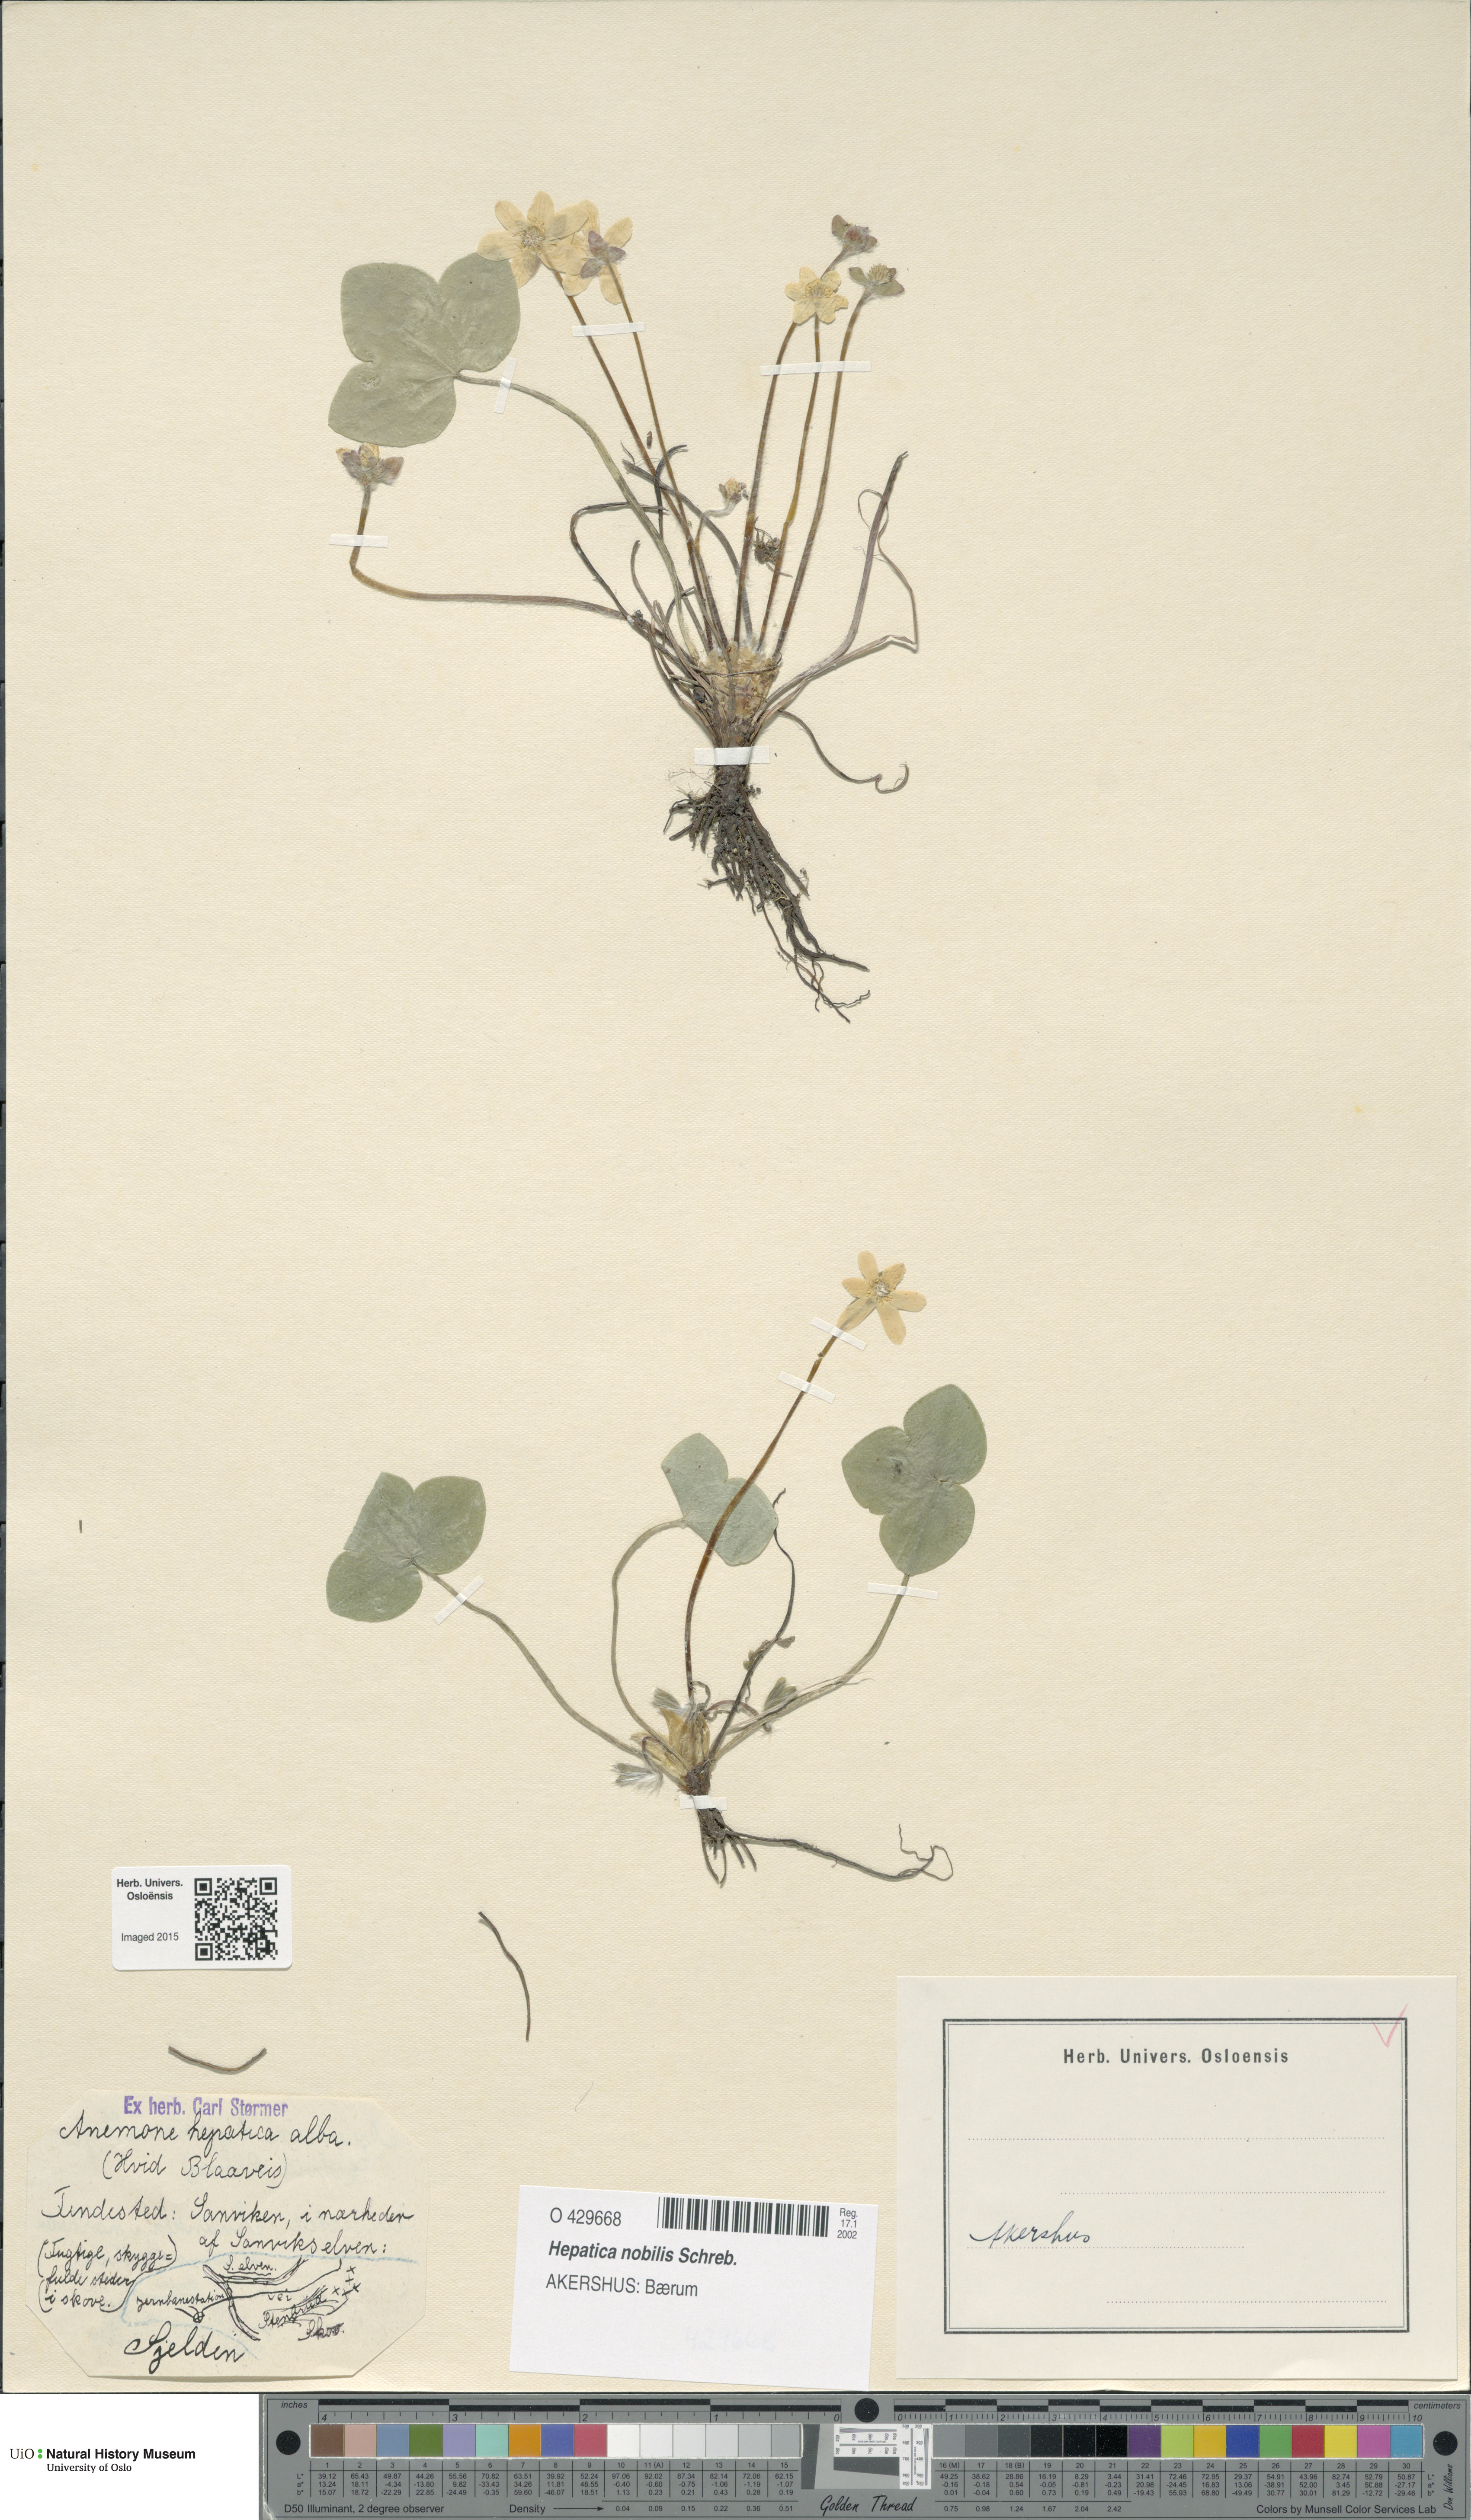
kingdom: Plantae
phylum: Tracheophyta
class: Magnoliopsida
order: Ranunculales
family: Ranunculaceae
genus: Hepatica
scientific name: Hepatica nobilis
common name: Liverleaf
